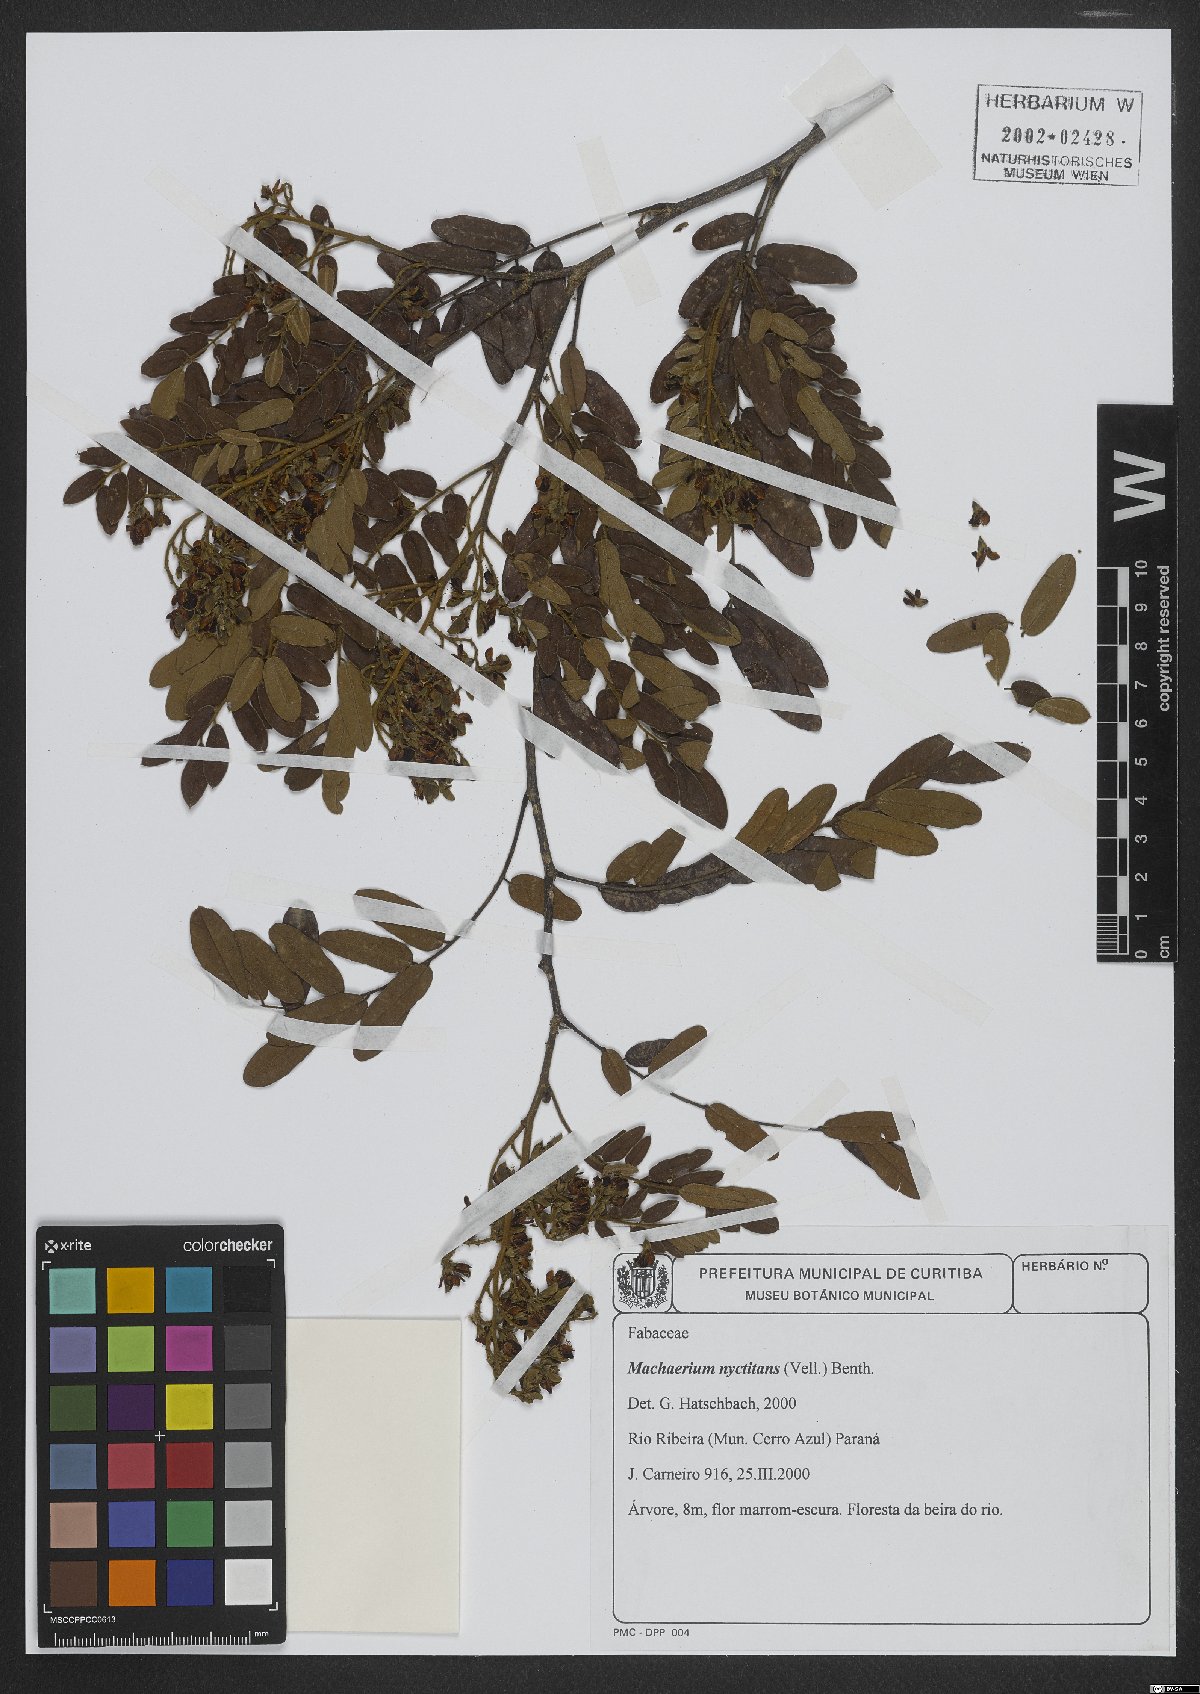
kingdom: Plantae
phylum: Tracheophyta
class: Magnoliopsida
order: Fabales
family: Fabaceae
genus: Machaerium
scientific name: Machaerium nyctitans
